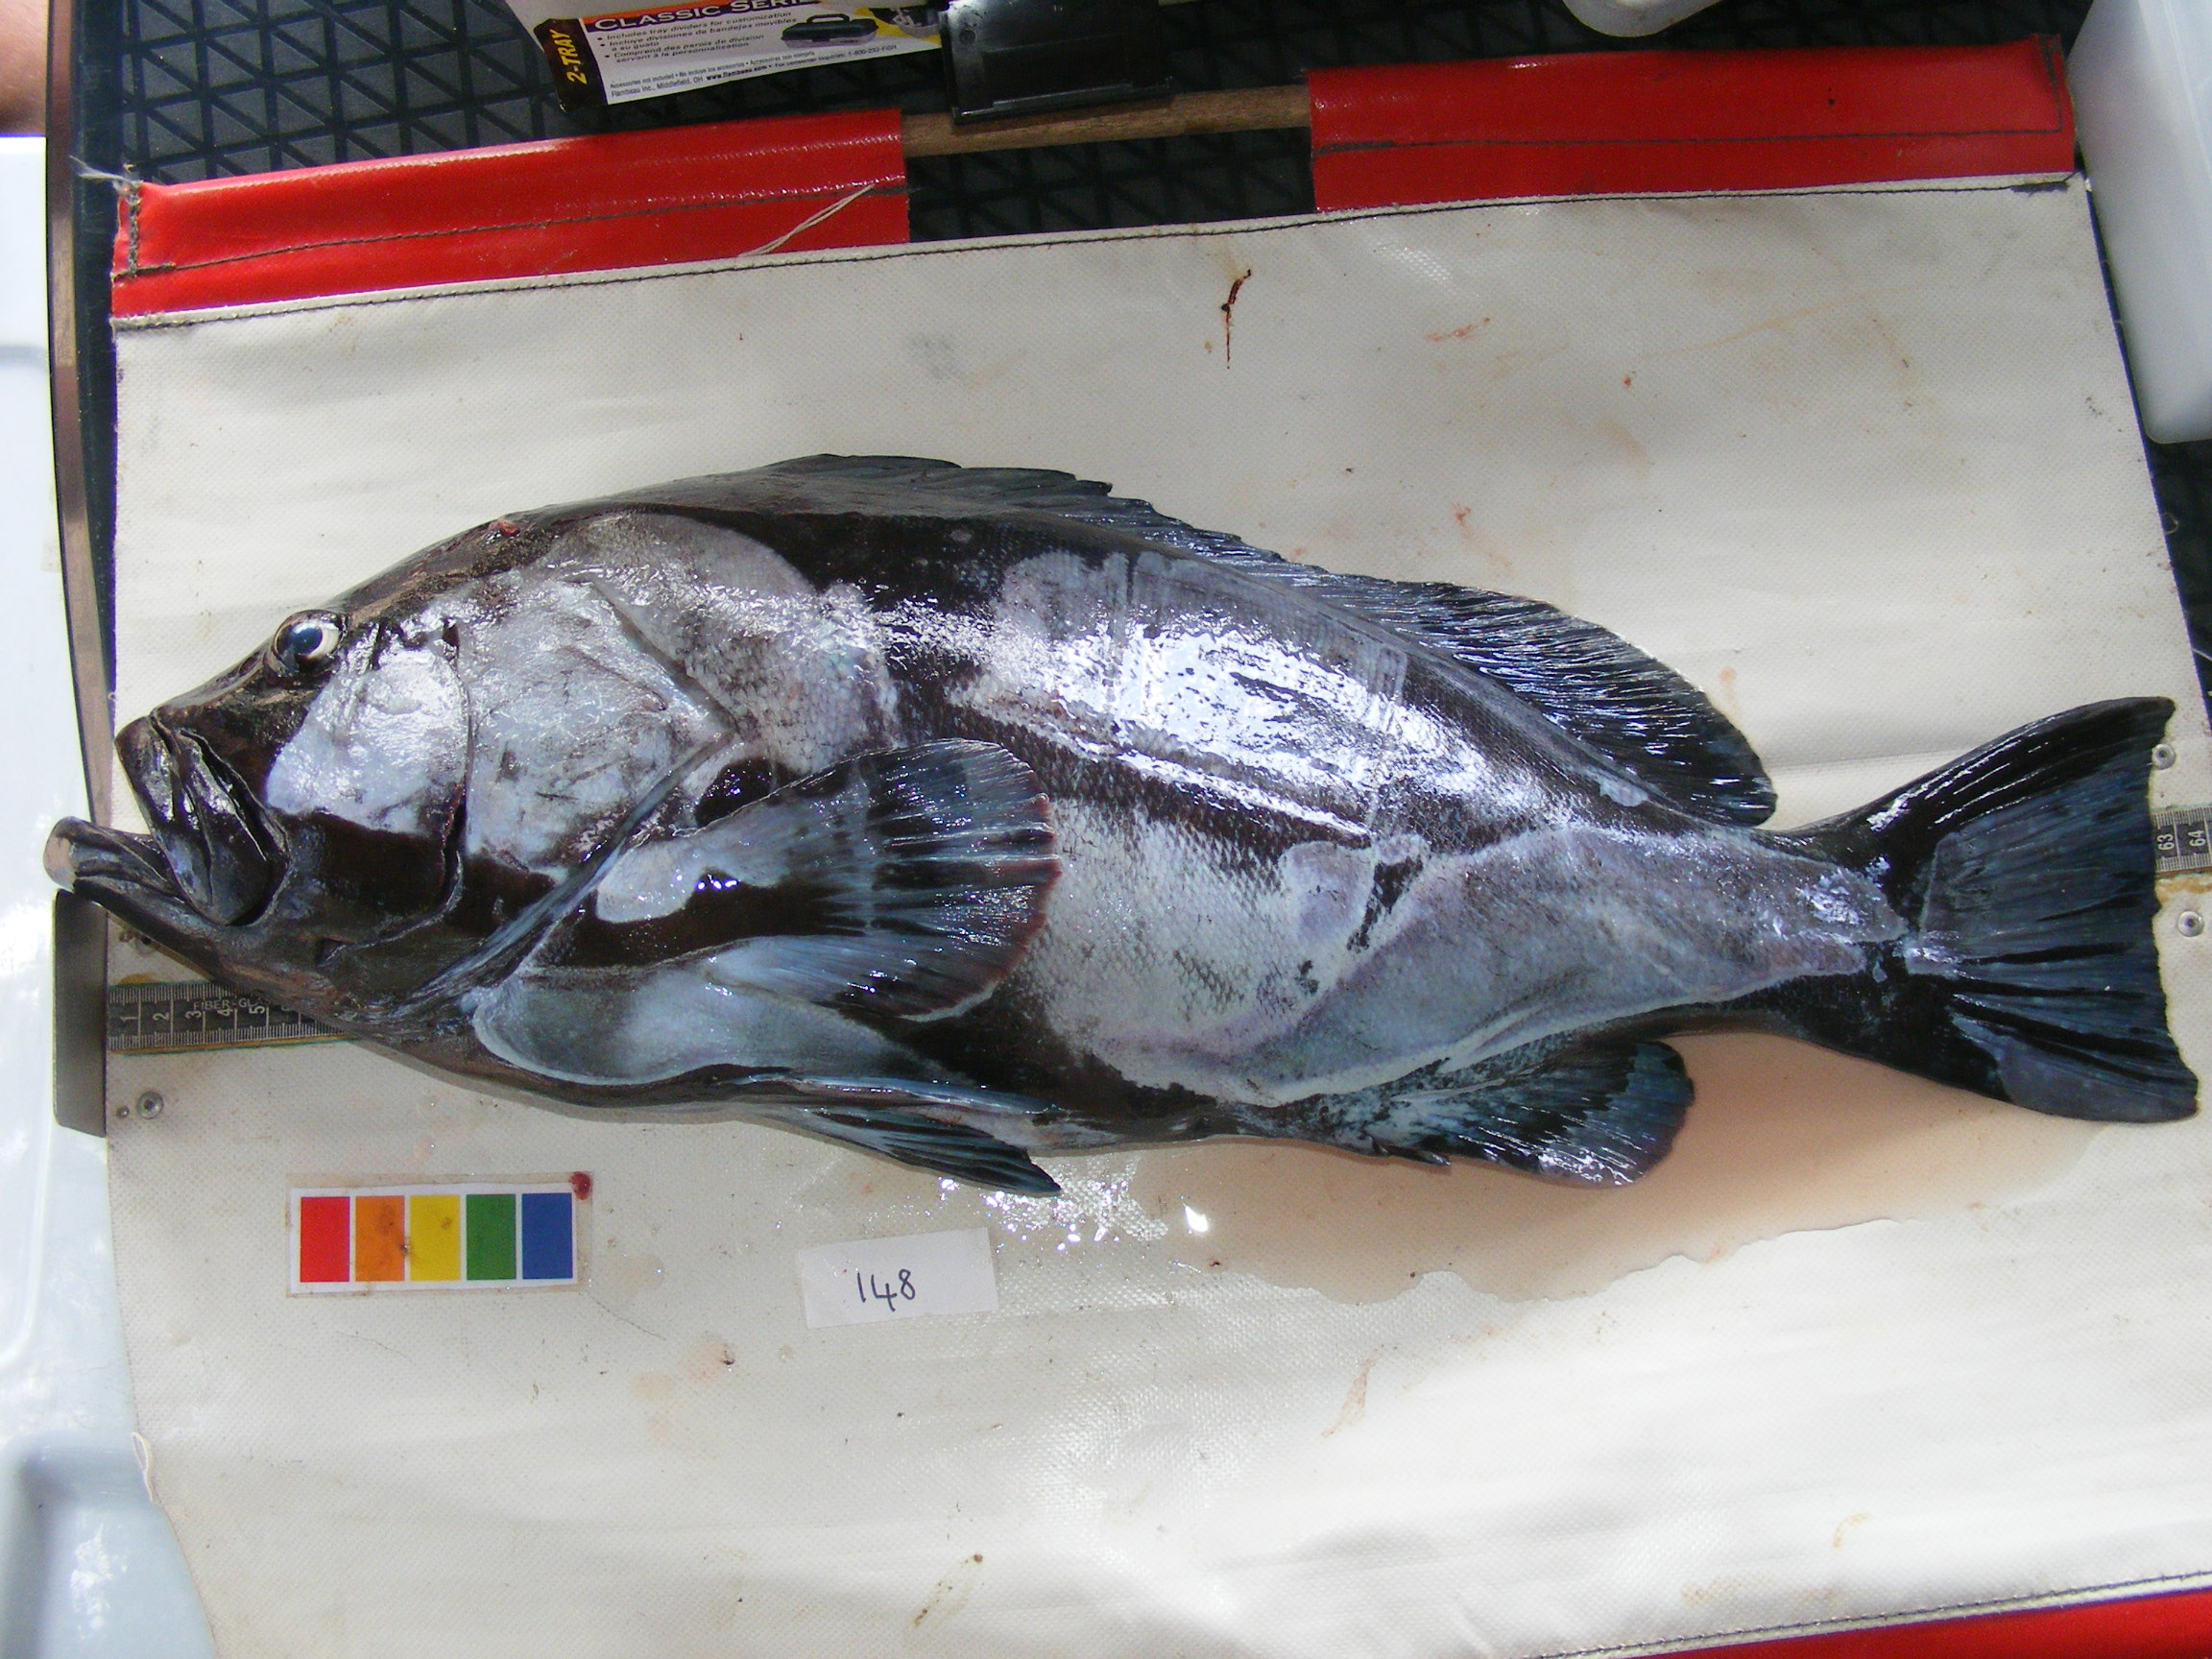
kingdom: Animalia
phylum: Chordata
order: Perciformes
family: Serranidae
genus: Epinephelus
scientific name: Epinephelus multinotatus
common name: Rankin's cod
